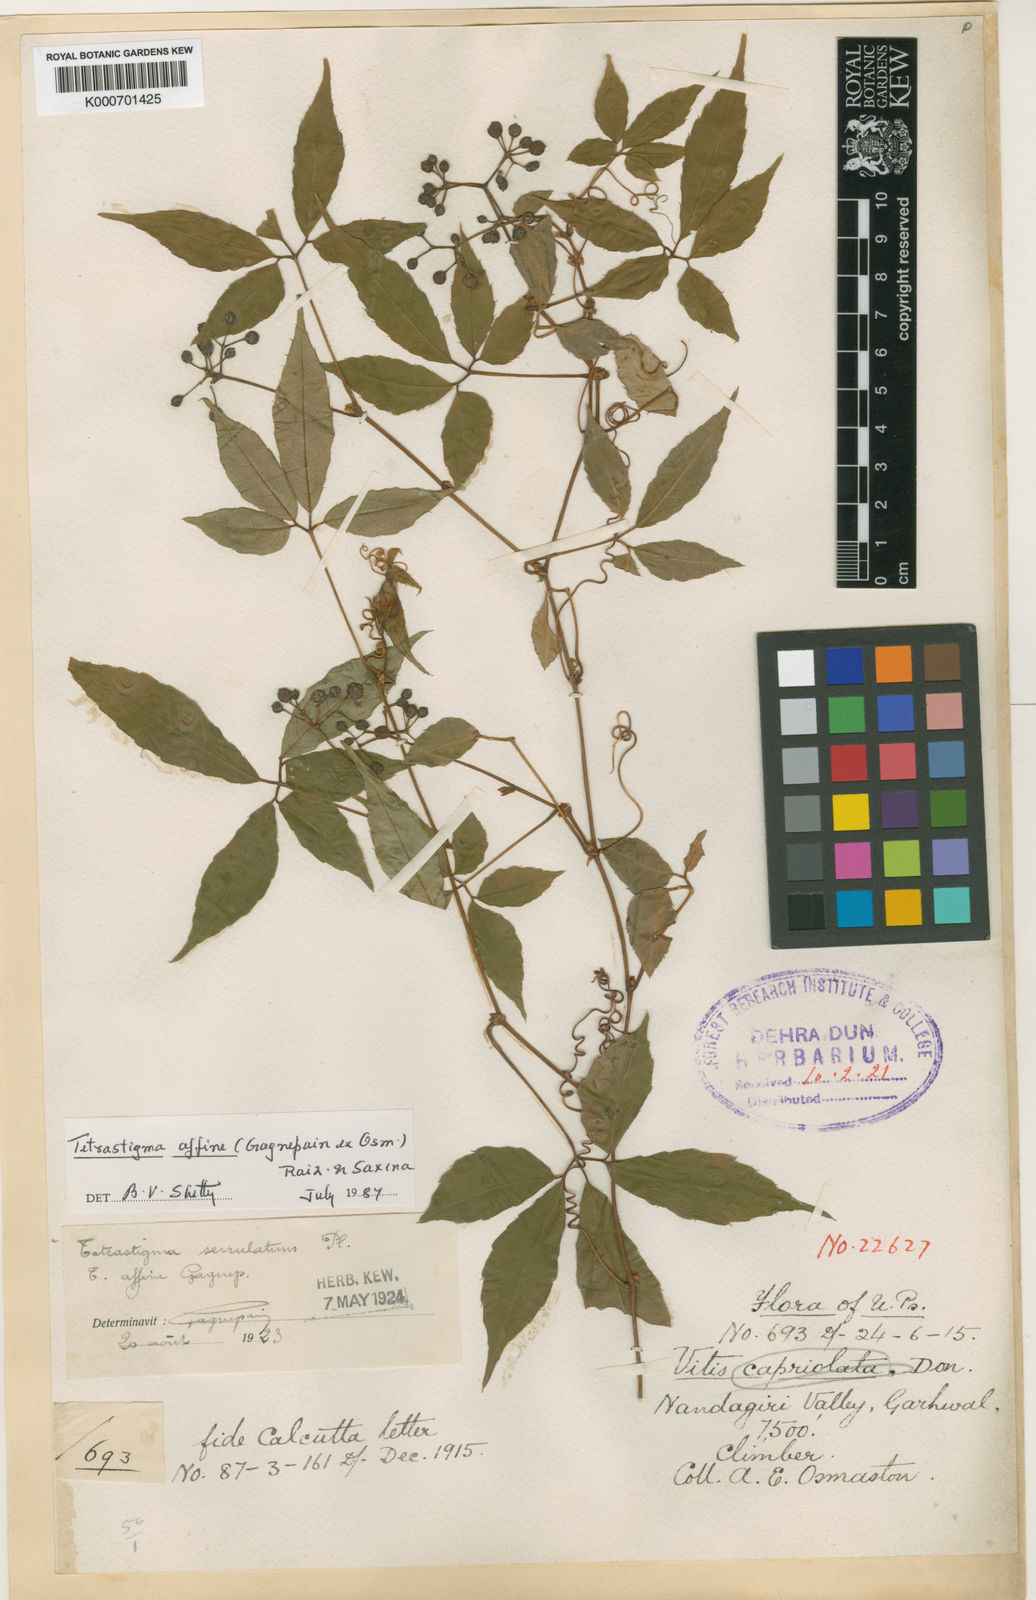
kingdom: Plantae
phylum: Tracheophyta
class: Magnoliopsida
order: Vitales
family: Vitaceae
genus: Tetrastigma
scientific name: Tetrastigma affine
